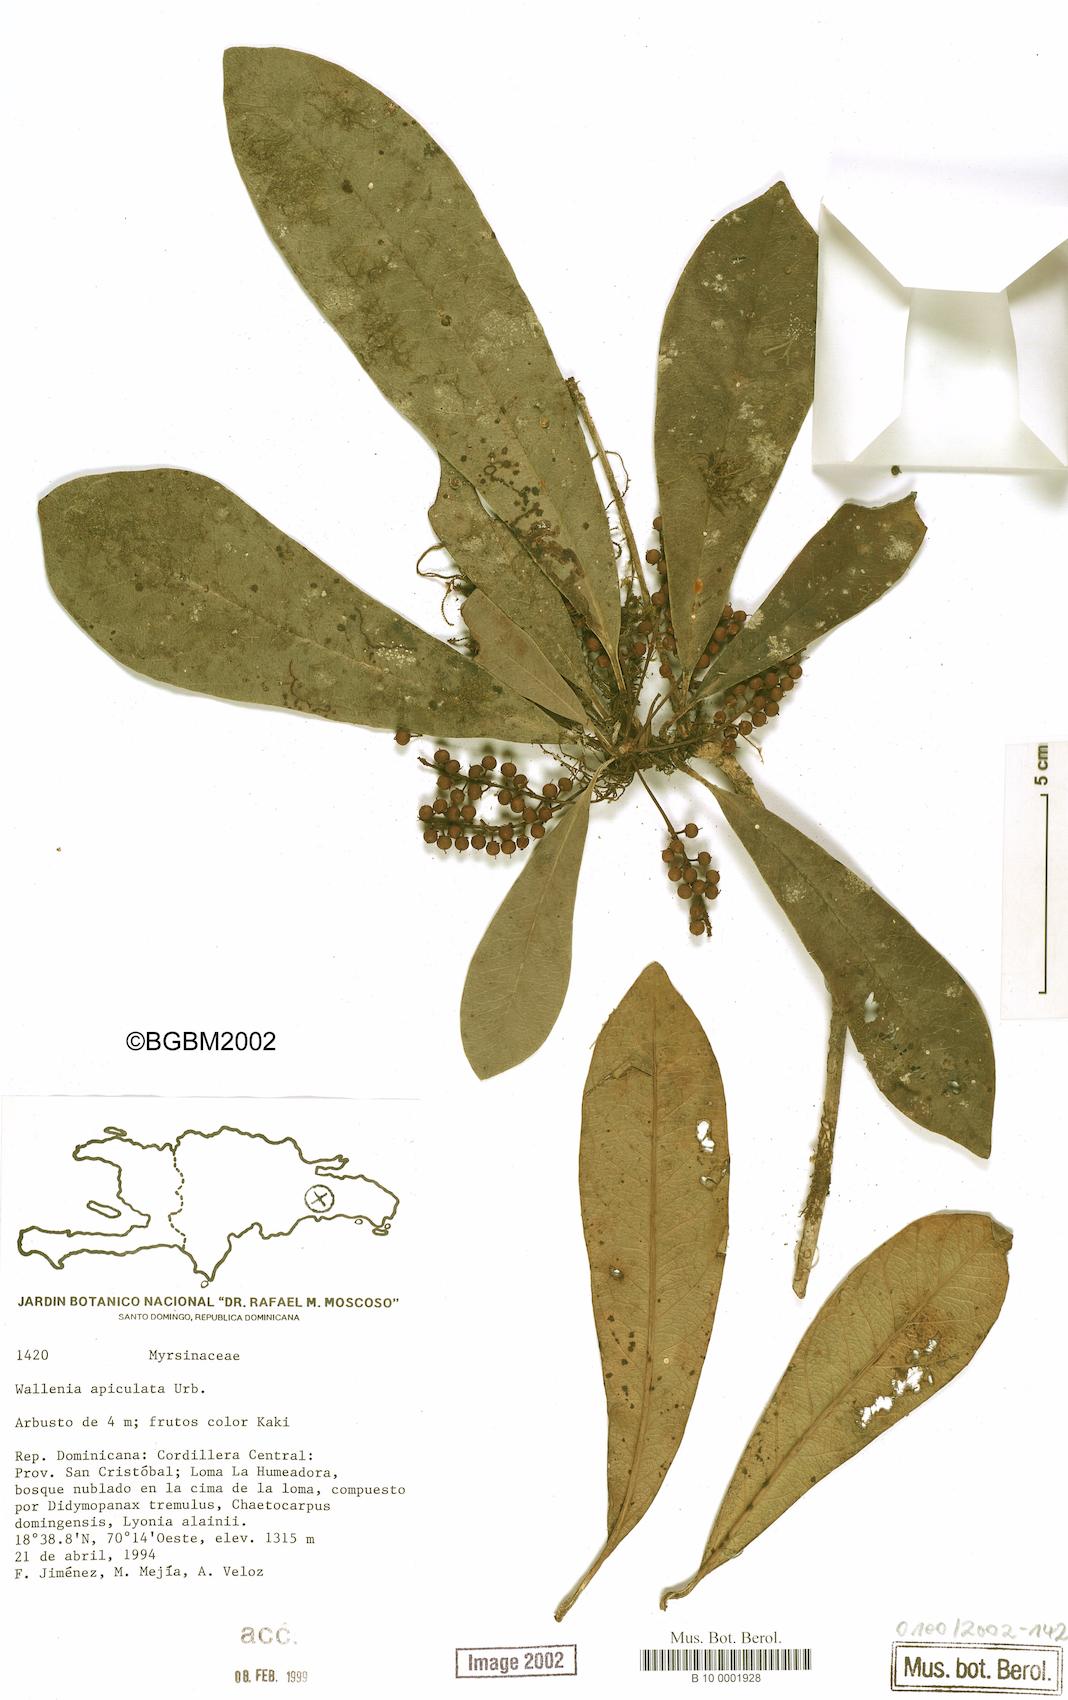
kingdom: Plantae
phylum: Tracheophyta
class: Magnoliopsida
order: Ericales
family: Primulaceae
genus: Wallenia
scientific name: Wallenia apiculata
